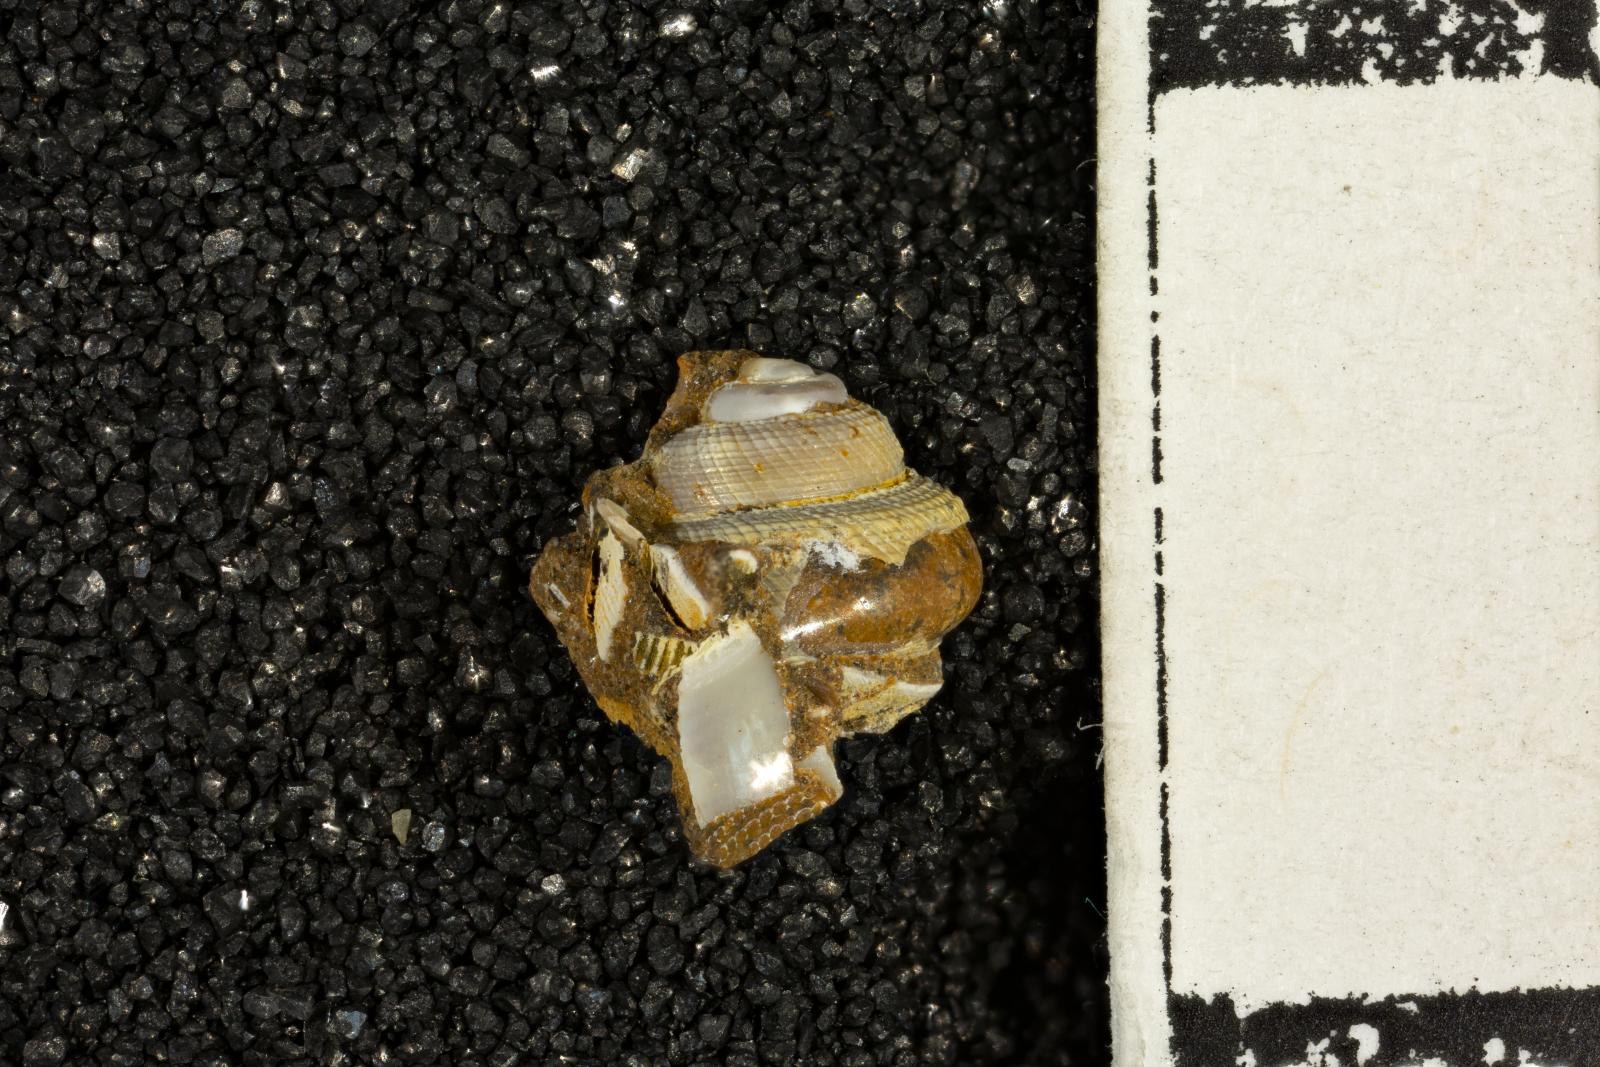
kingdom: Animalia
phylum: Mollusca
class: Bivalvia
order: Ostreida
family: Pteriidae
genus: Atira
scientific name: Atira popenoei
